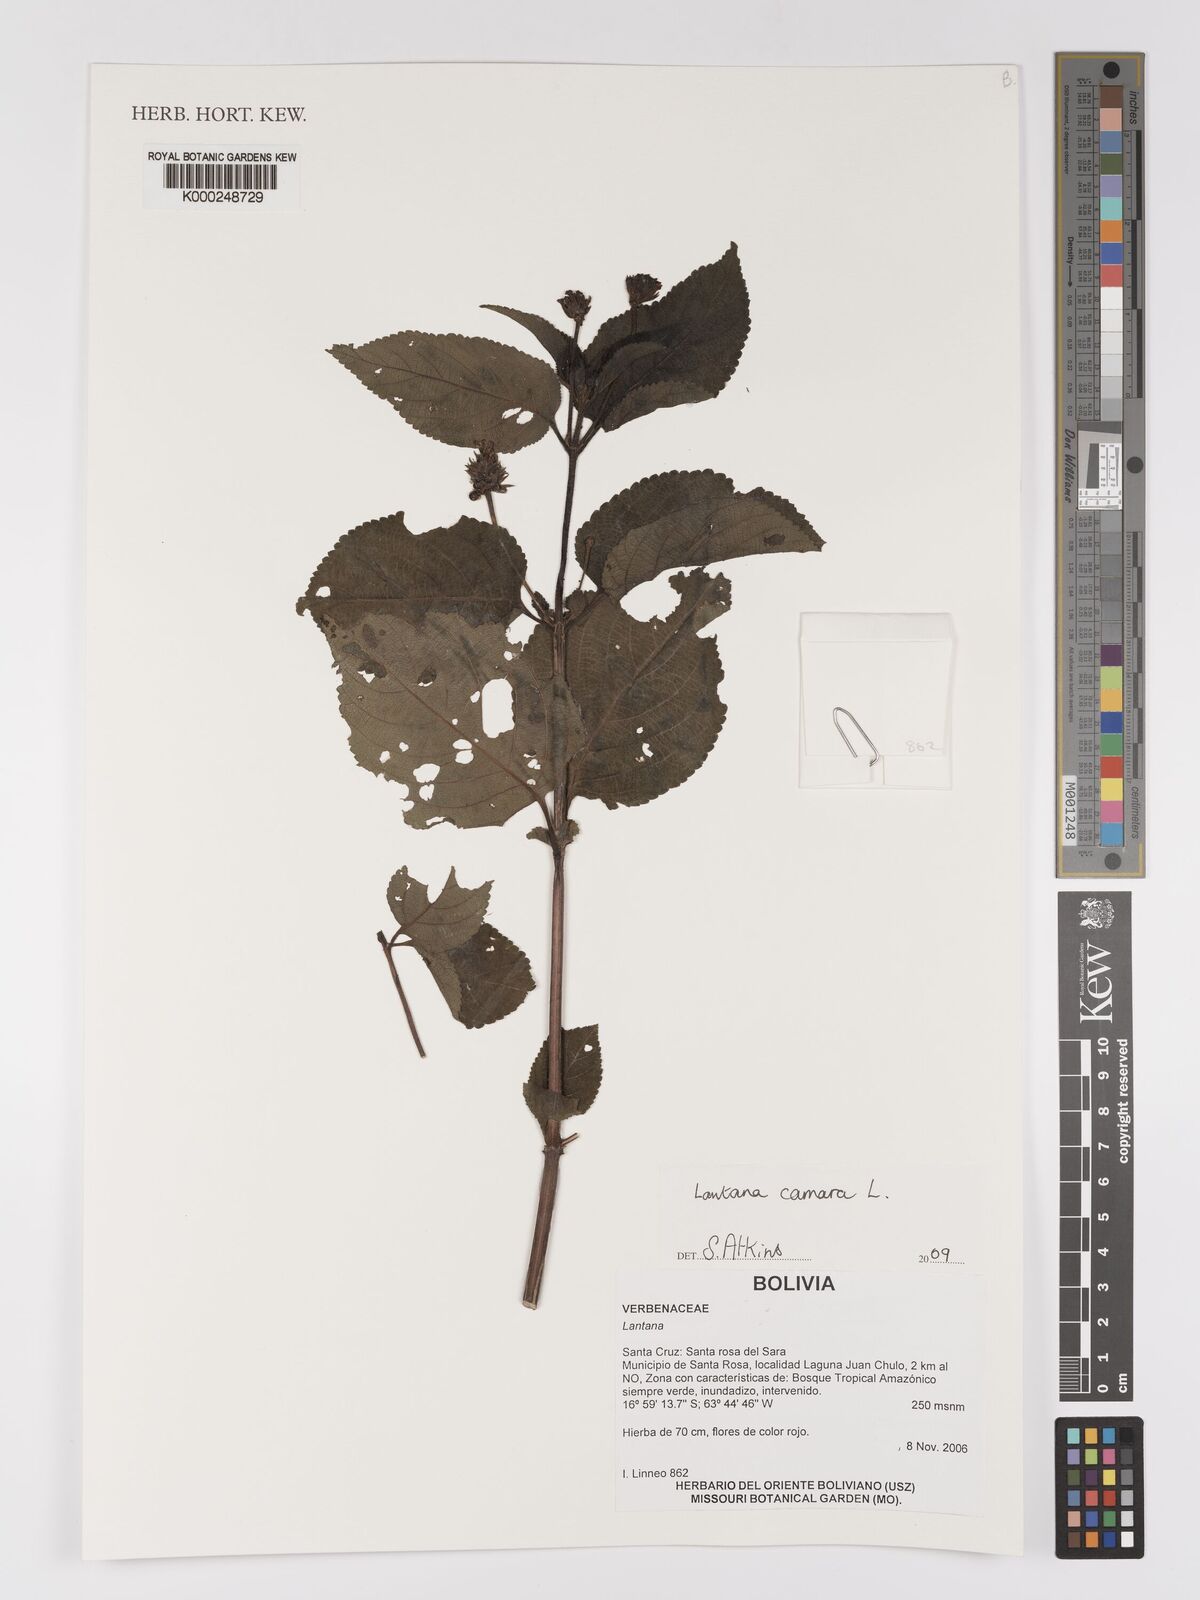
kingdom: Plantae
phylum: Tracheophyta
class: Magnoliopsida
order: Lamiales
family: Verbenaceae
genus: Lantana
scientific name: Lantana camara
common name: Lantana
